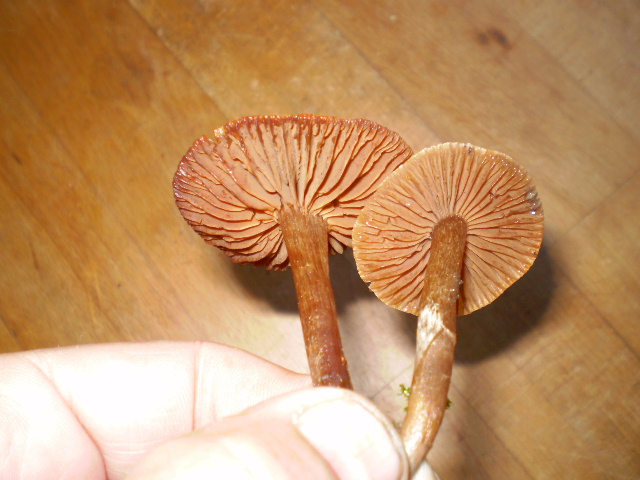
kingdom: Fungi
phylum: Basidiomycota
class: Agaricomycetes
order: Agaricales
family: Cortinariaceae
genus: Cortinarius
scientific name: Cortinarius
